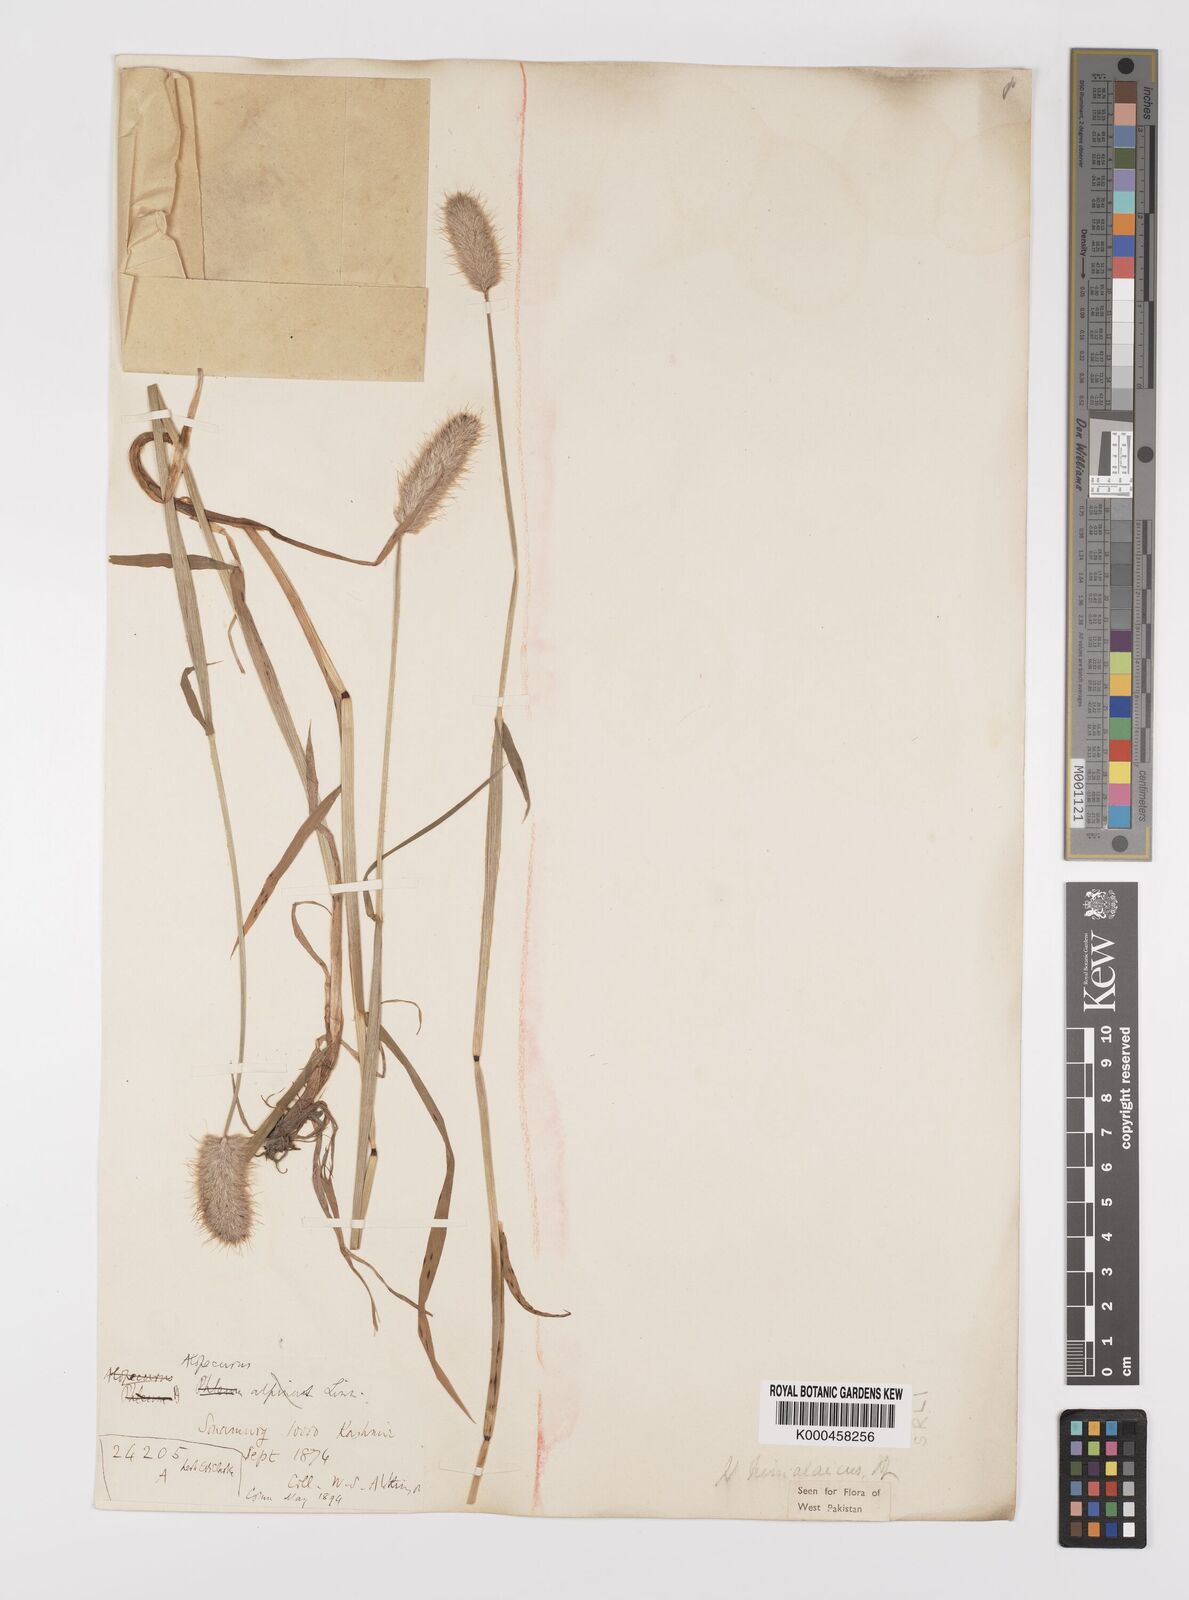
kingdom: Plantae
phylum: Tracheophyta
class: Liliopsida
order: Poales
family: Poaceae
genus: Alopecurus
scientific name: Alopecurus himalaicus
